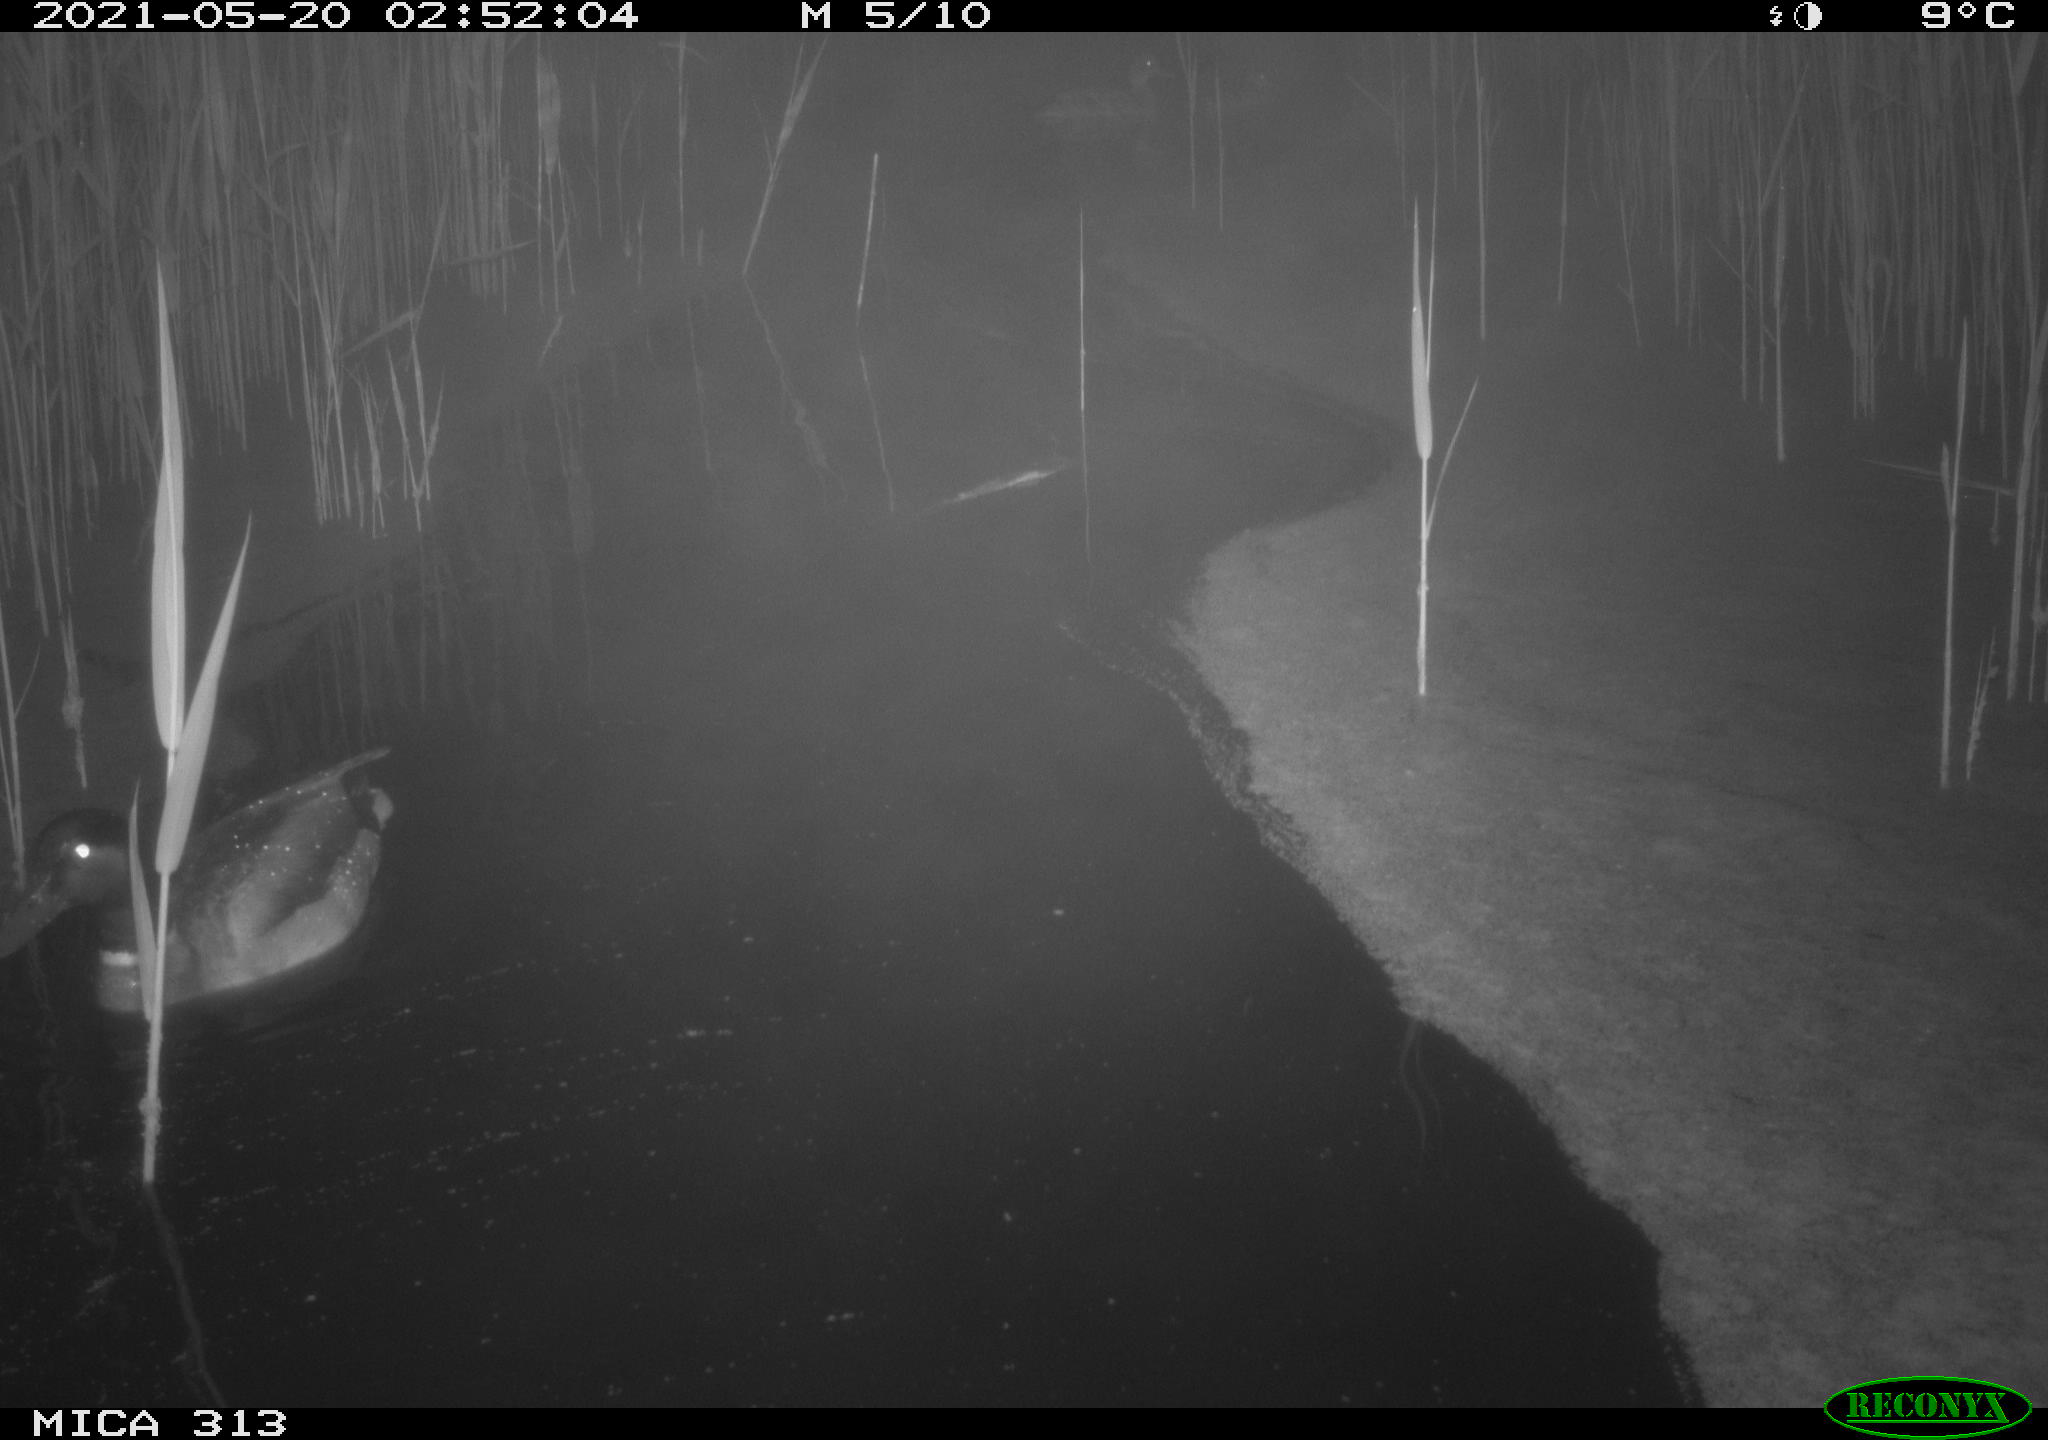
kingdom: Animalia
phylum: Chordata
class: Aves
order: Gruiformes
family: Rallidae
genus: Fulica
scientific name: Fulica atra
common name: Eurasian coot
